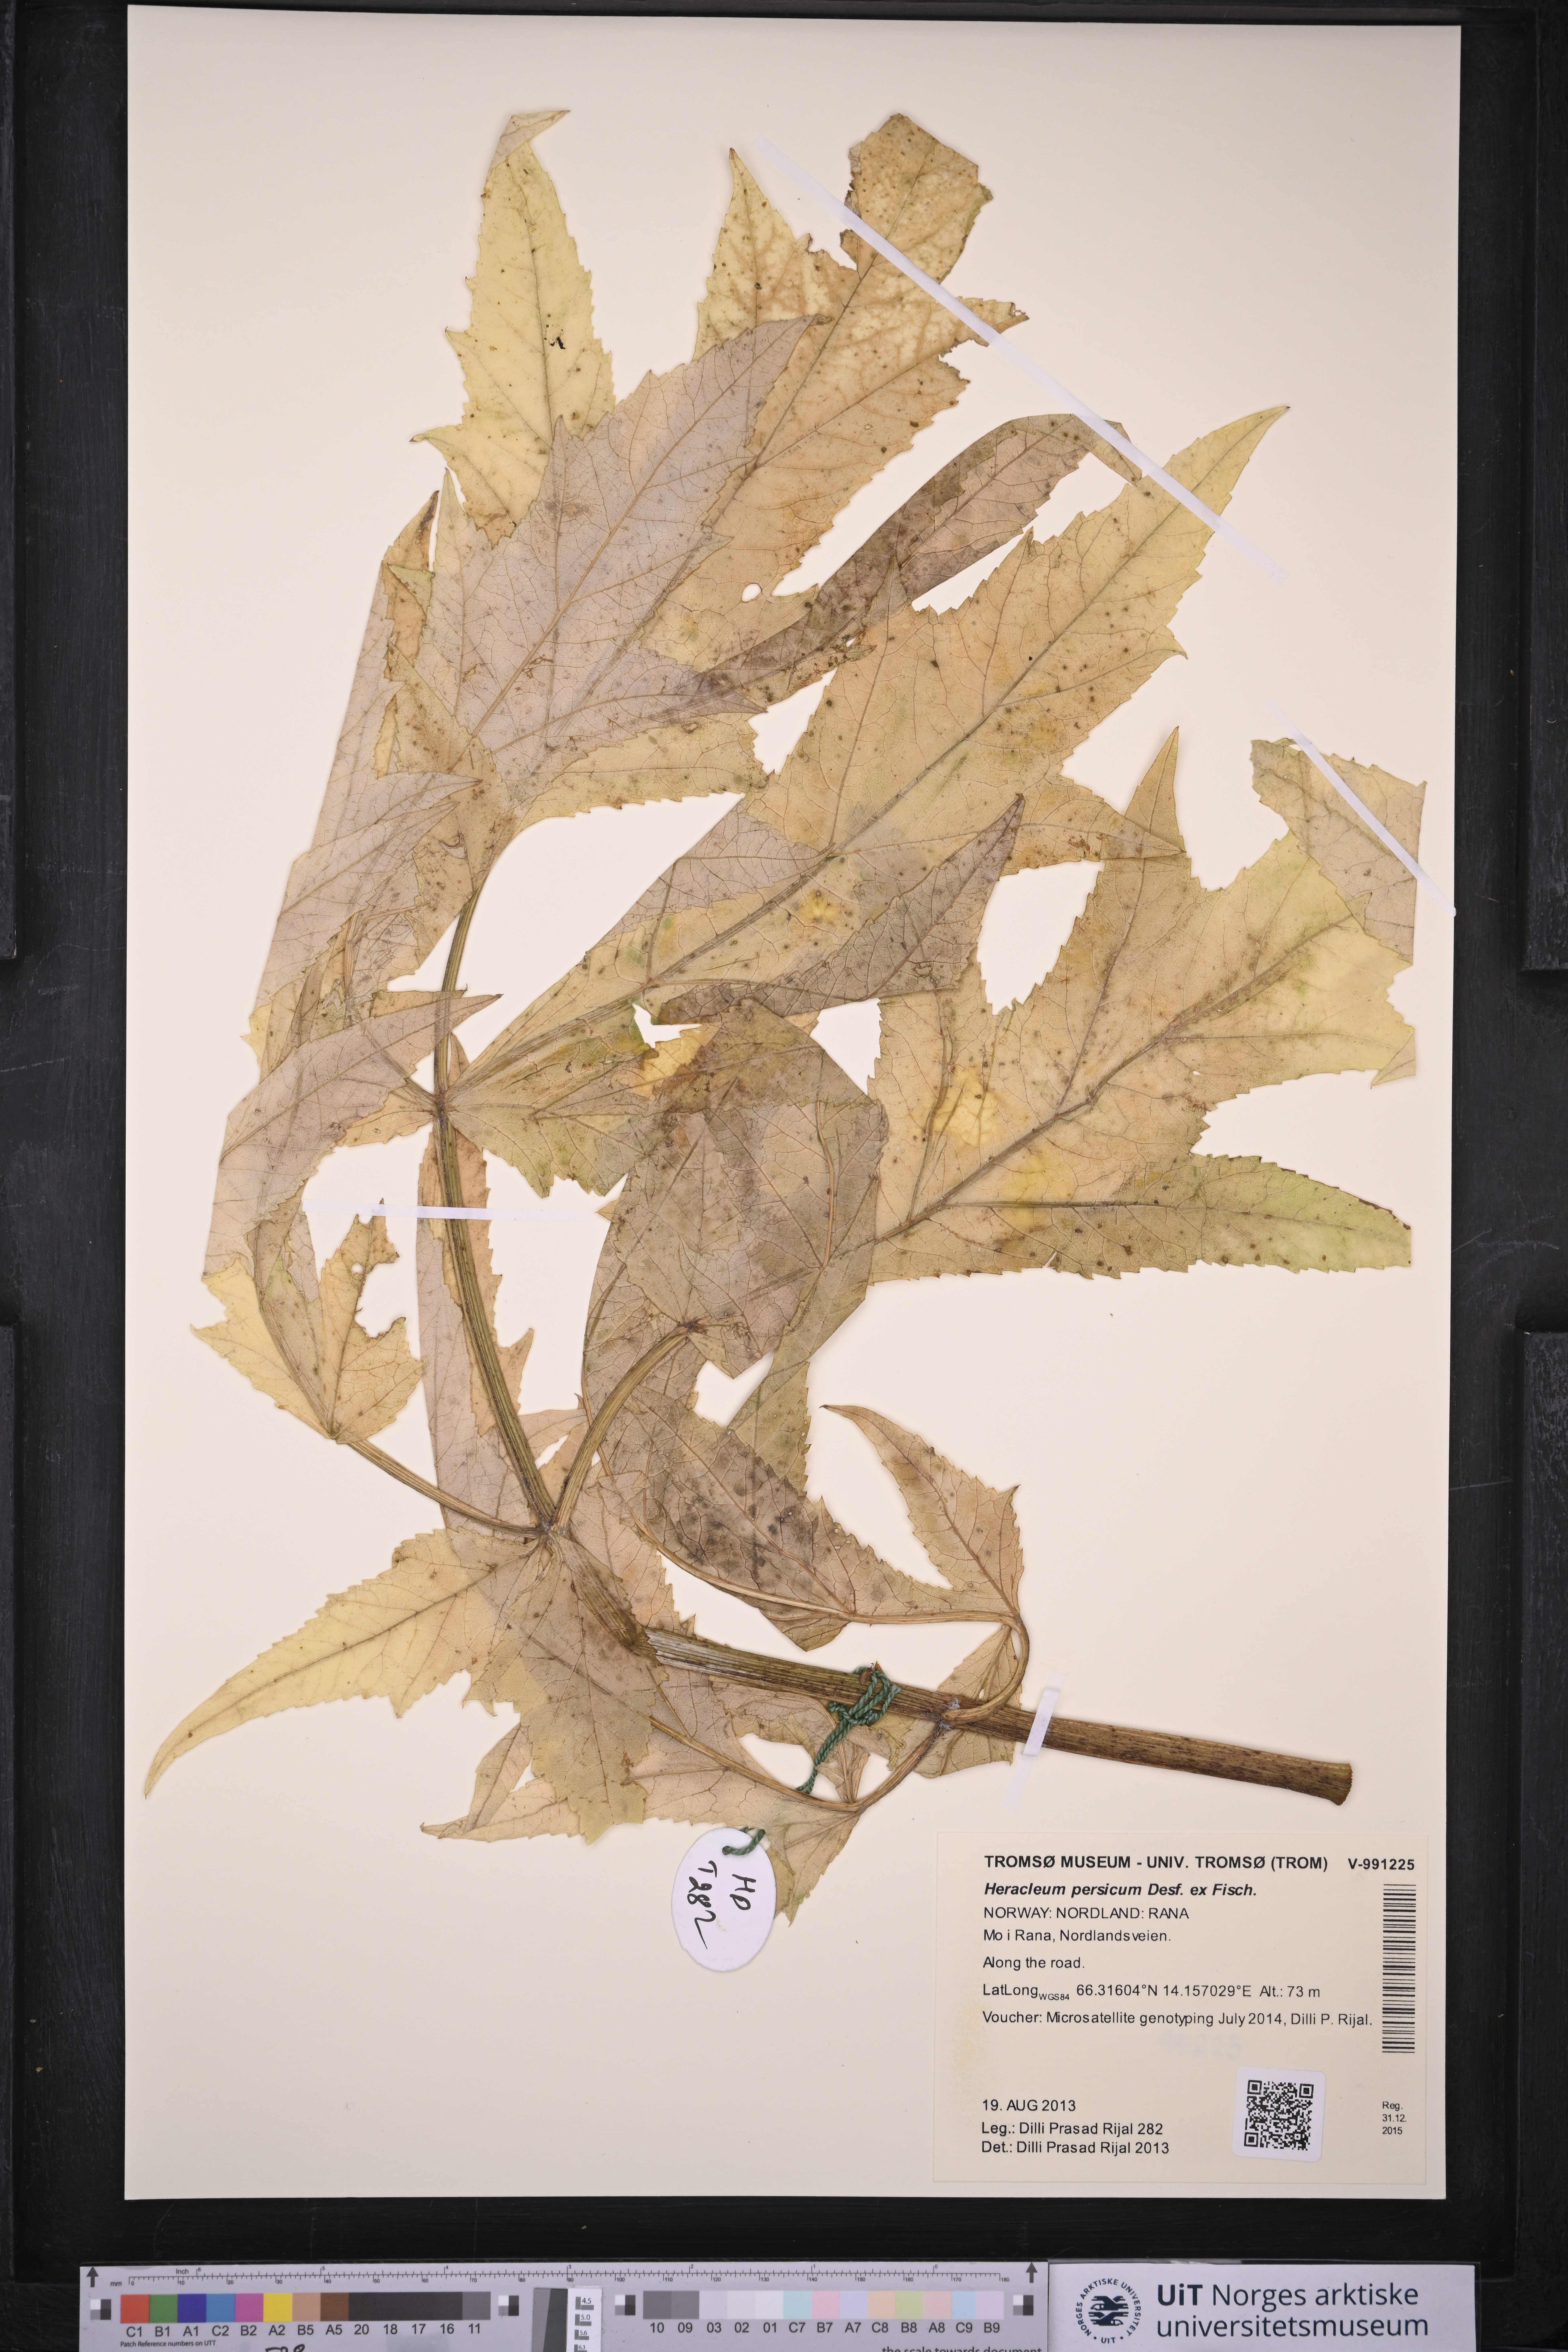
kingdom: Plantae
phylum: Tracheophyta
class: Magnoliopsida
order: Apiales
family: Apiaceae
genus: Heracleum
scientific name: Heracleum persicum
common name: Persian hogweed
